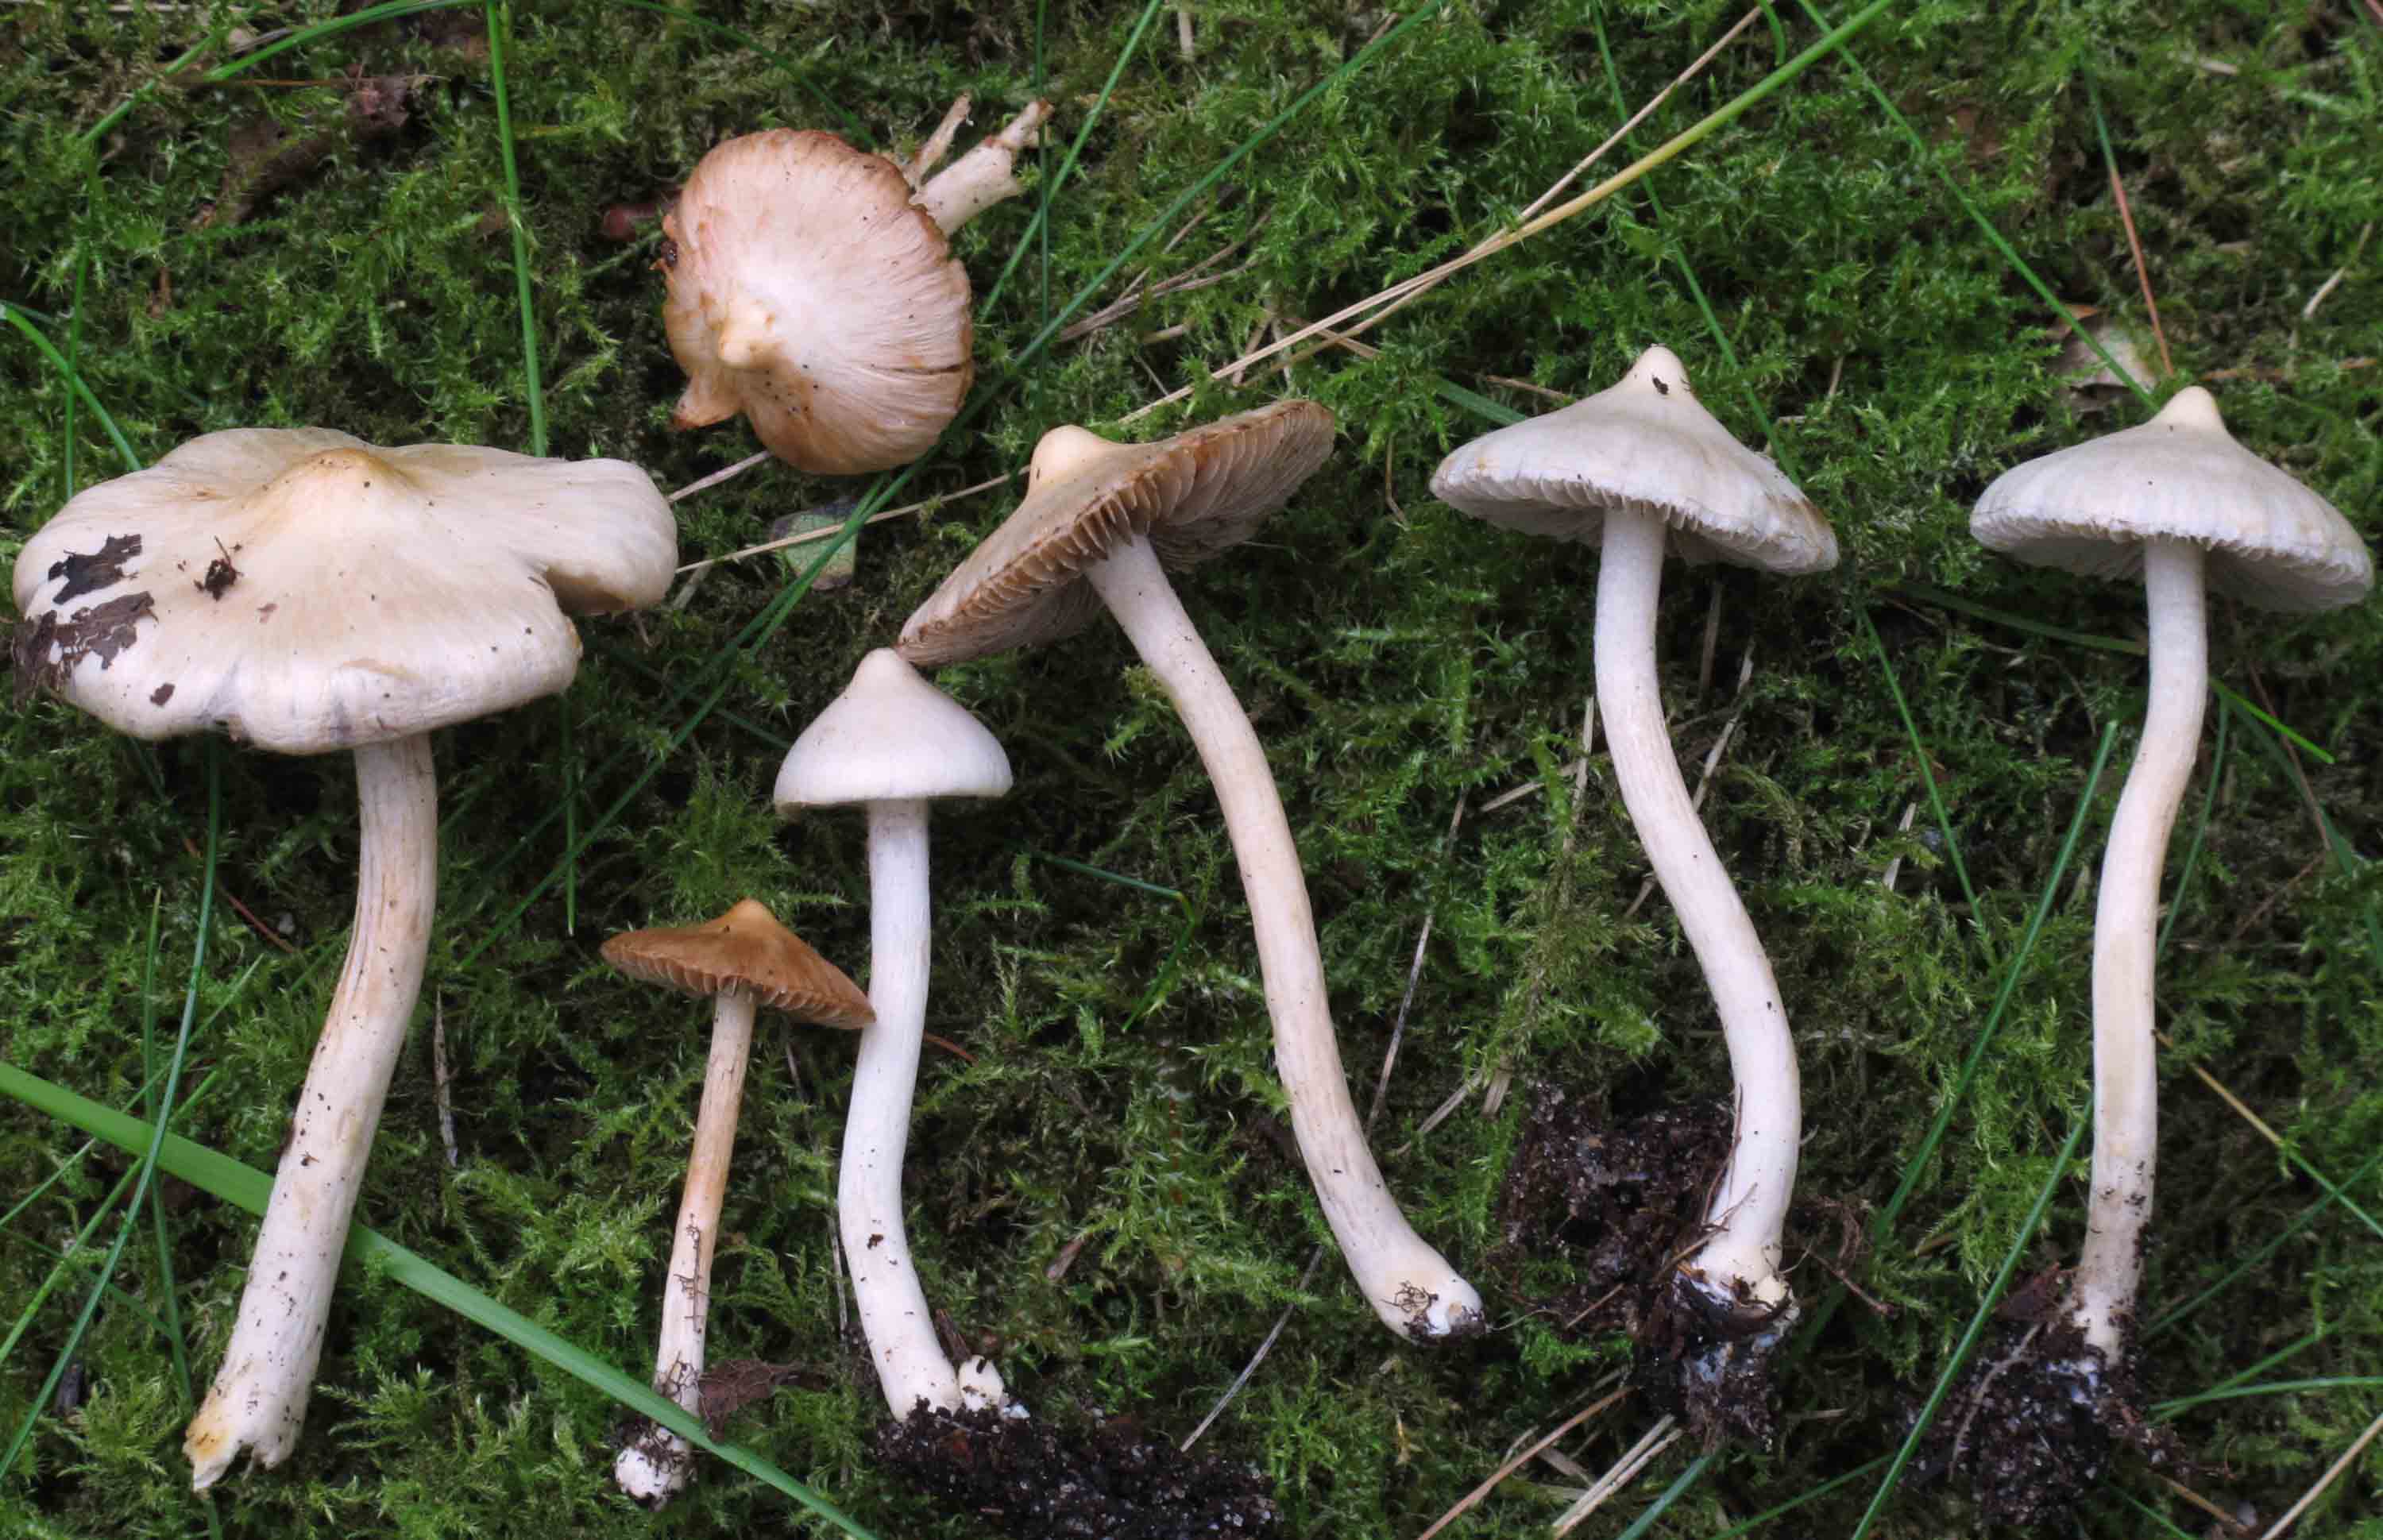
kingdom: Fungi
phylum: Basidiomycota
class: Agaricomycetes
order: Agaricales
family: Inocybaceae
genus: Inocybe
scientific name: Inocybe whitei
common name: rødmende trævlhat
